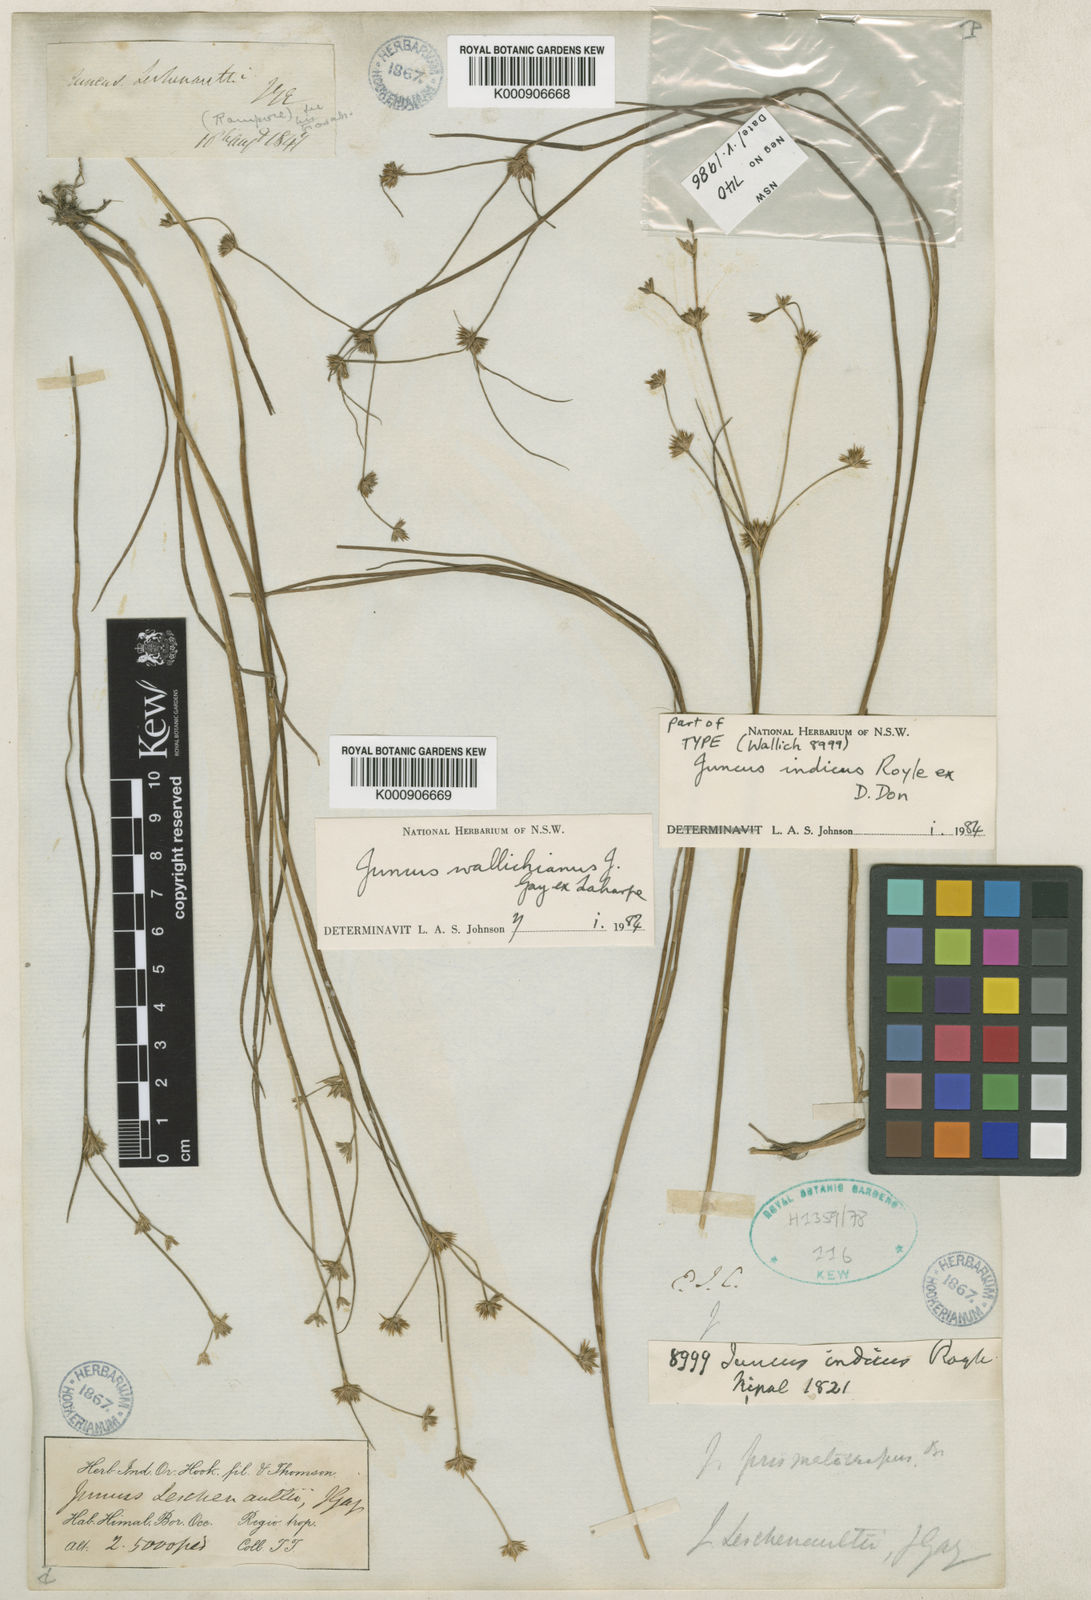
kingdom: Plantae
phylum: Tracheophyta
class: Liliopsida
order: Poales
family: Juncaceae
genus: Juncus
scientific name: Juncus prismatocarpus
